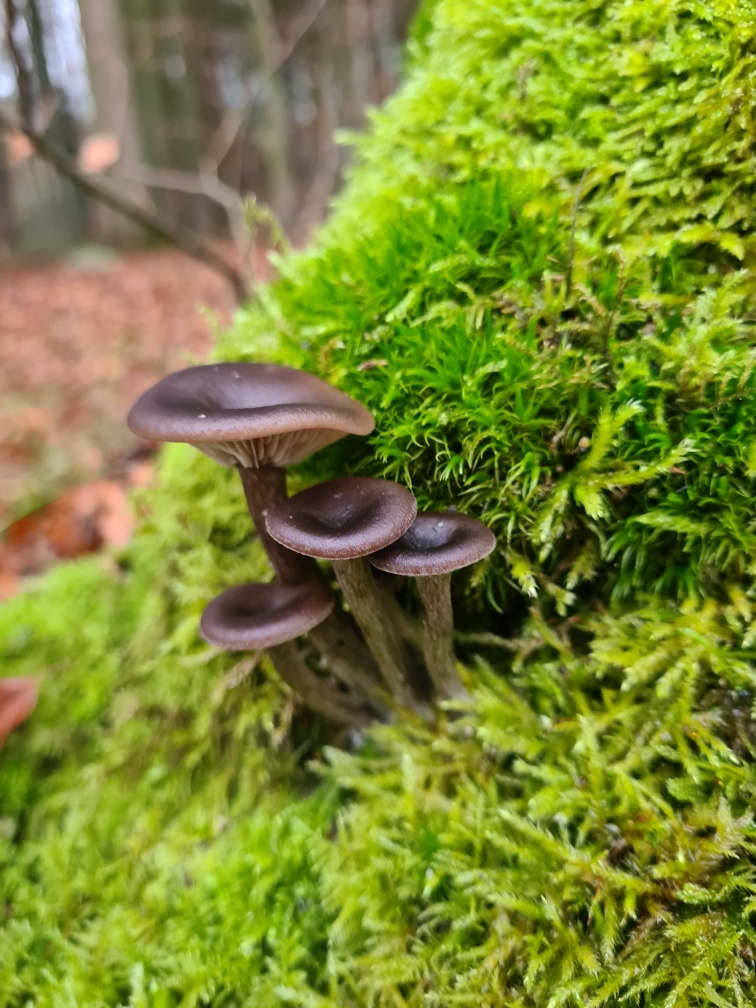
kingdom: Fungi
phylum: Basidiomycota
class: Agaricomycetes
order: Agaricales
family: Pseudoclitocybaceae
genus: Pseudoclitocybe
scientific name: Pseudoclitocybe cyathiformis
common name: almindelig bægertragthat
